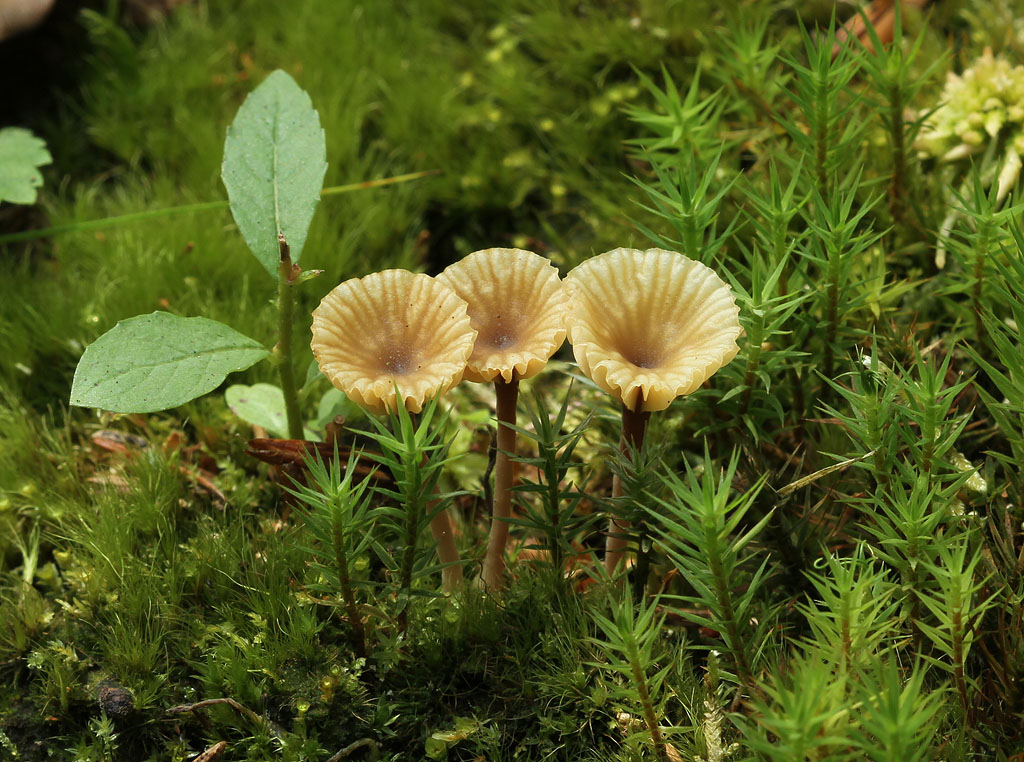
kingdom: Fungi
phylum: Basidiomycota
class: Agaricomycetes
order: Agaricales
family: Hygrophoraceae
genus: Lichenomphalia
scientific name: Lichenomphalia umbellifera
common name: tørve-lavhat
